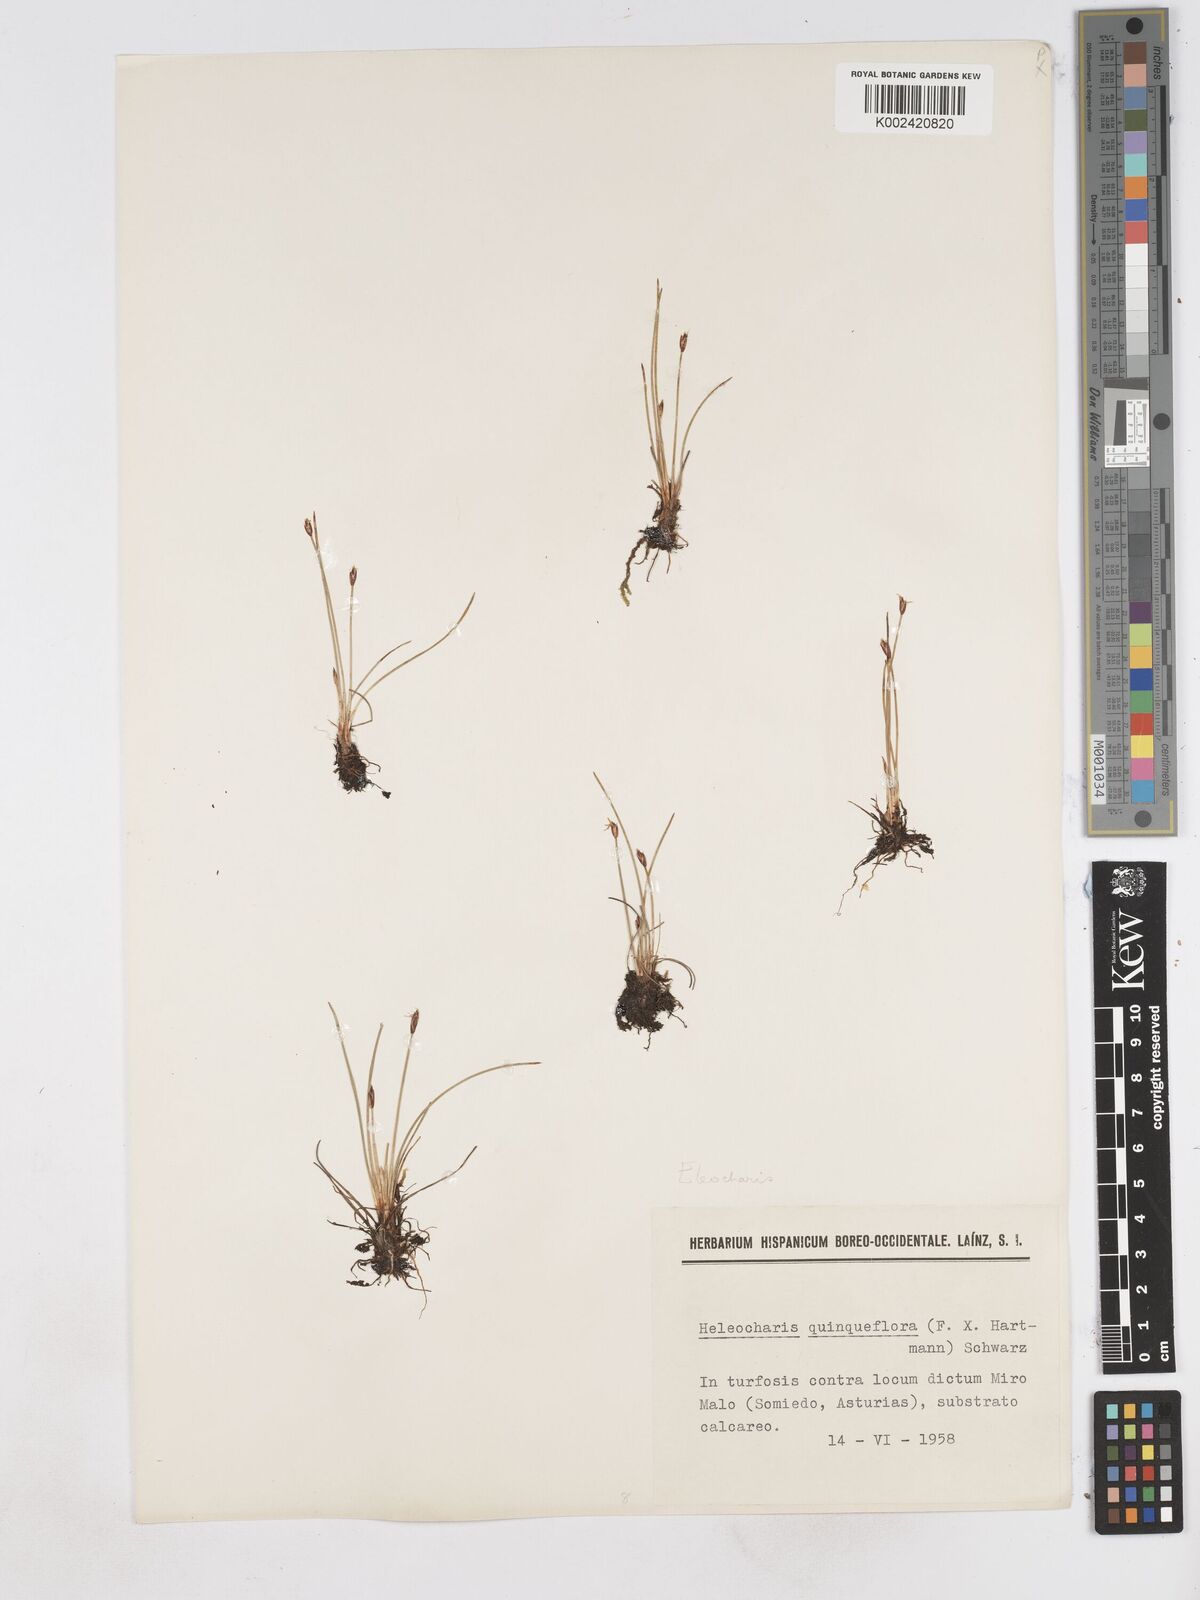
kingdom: Plantae
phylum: Tracheophyta
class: Liliopsida
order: Poales
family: Cyperaceae
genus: Eleocharis
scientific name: Eleocharis quinqueflora
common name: Few-flowered spike-rush
